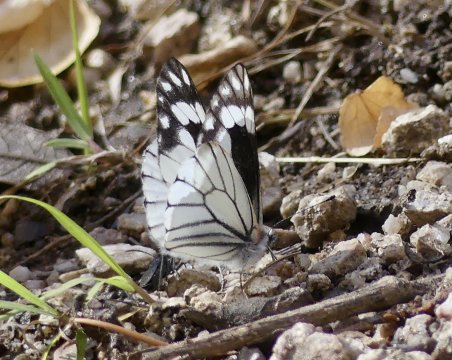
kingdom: Animalia
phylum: Arthropoda
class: Insecta
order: Lepidoptera
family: Pieridae
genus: Neophasia
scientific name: Neophasia terlooii
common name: Chiricahua White
